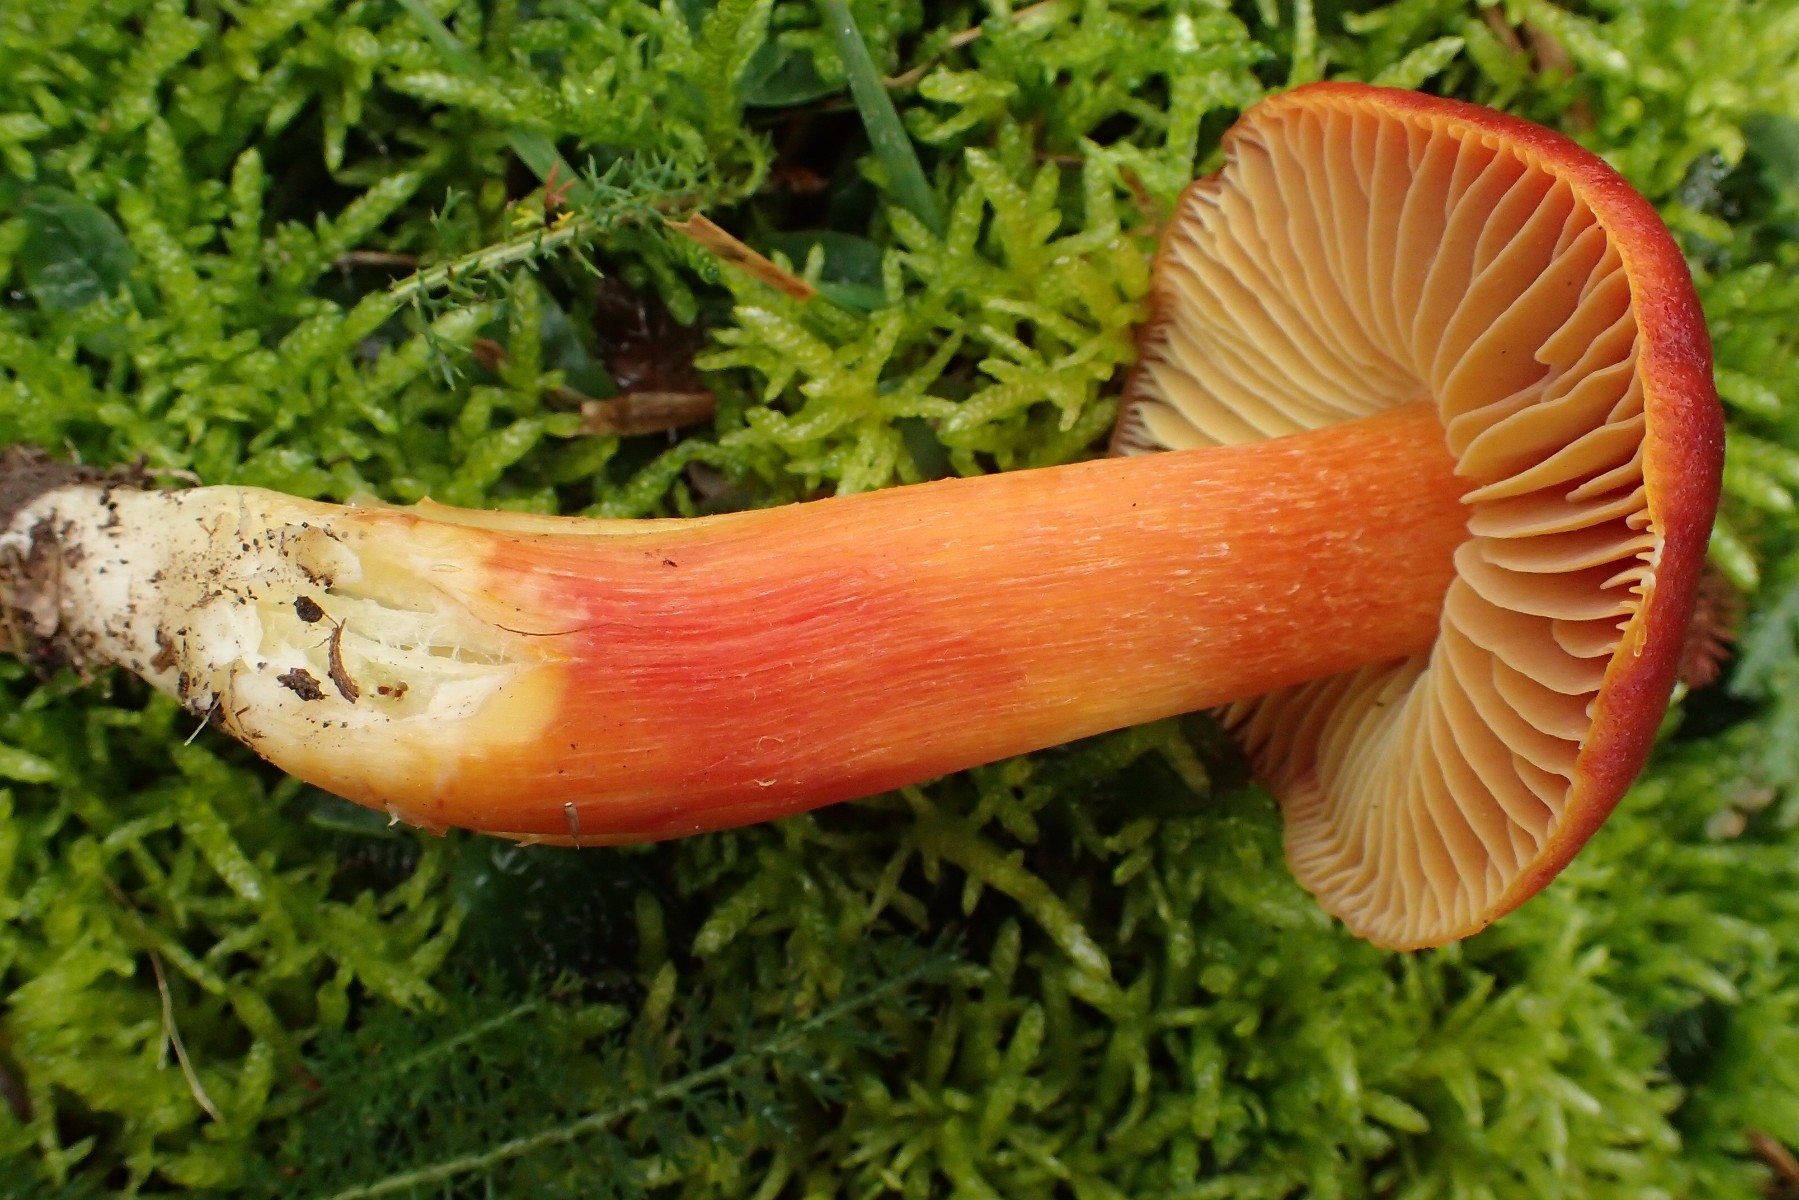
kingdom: Fungi
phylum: Basidiomycota
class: Agaricomycetes
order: Agaricales
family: Hygrophoraceae
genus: Hygrocybe
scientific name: Hygrocybe punicea
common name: skarlagen-vokshat
